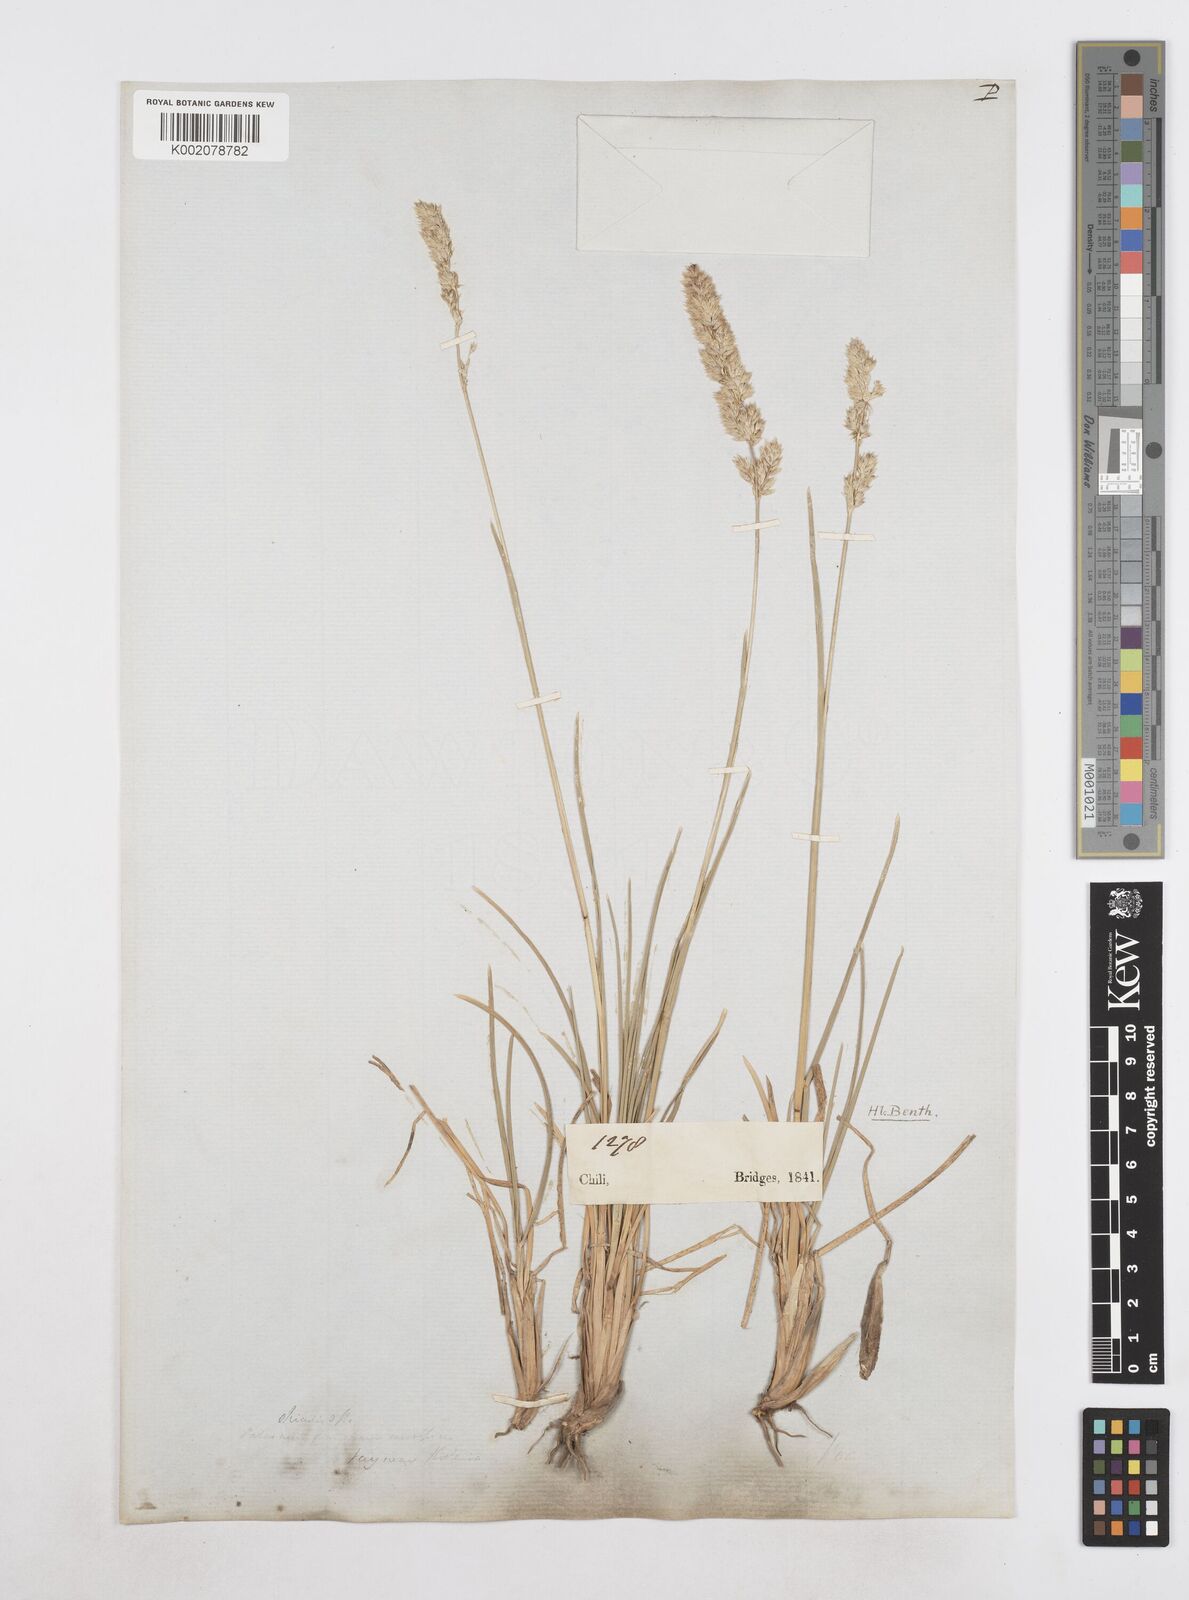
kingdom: Plantae
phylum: Tracheophyta
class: Liliopsida
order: Poales
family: Poaceae
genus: Poa
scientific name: Poa
